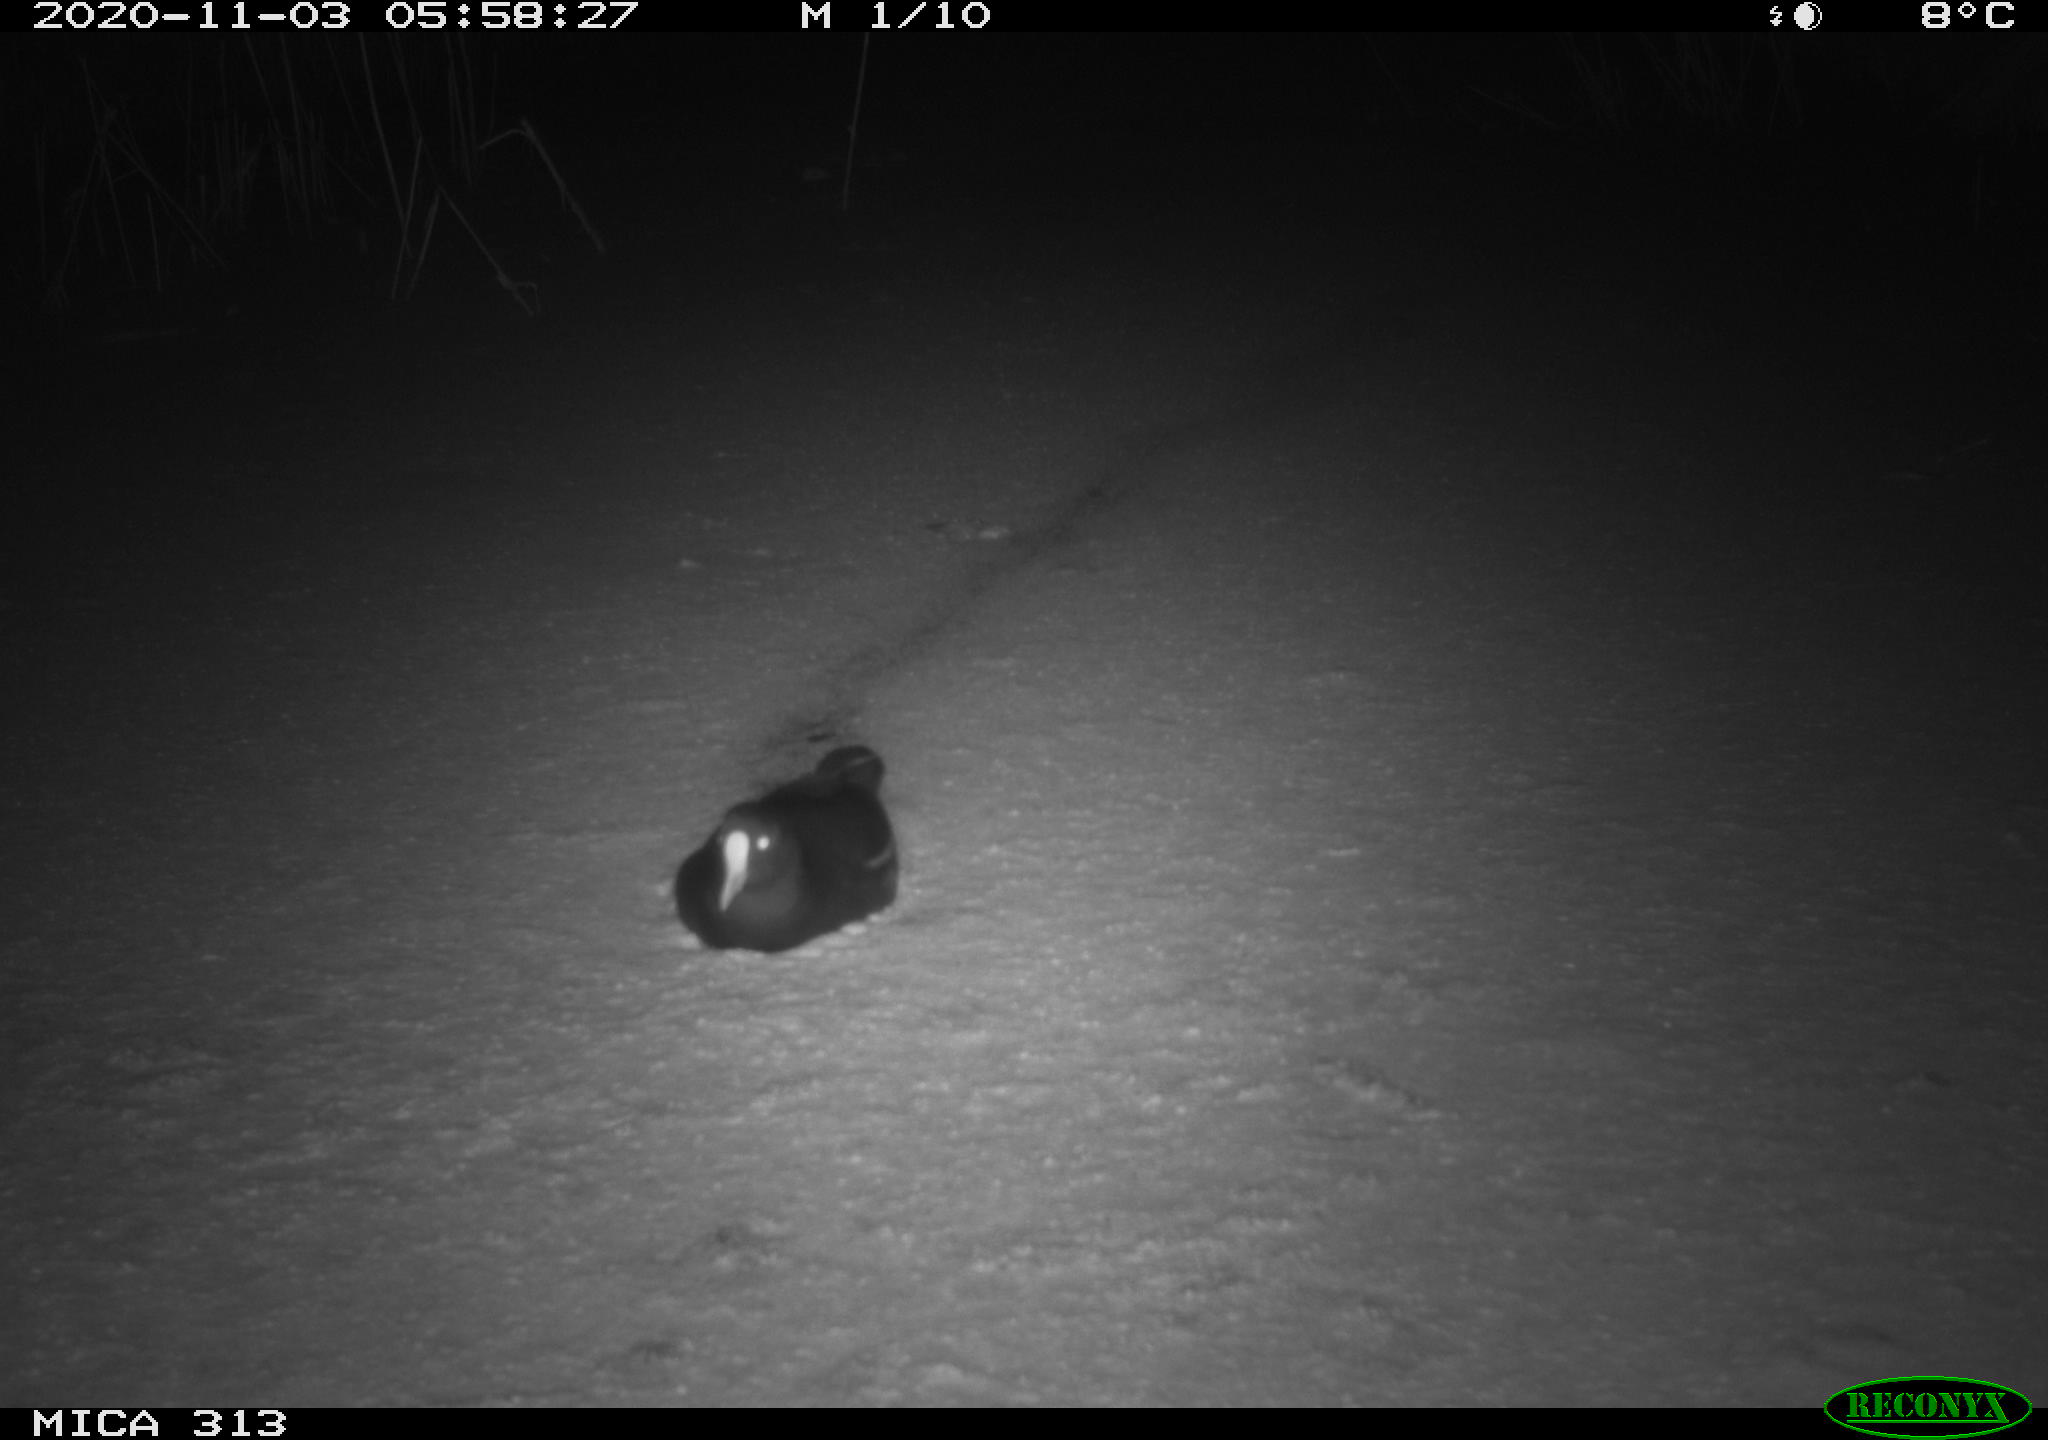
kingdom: Animalia
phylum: Chordata
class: Aves
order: Gruiformes
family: Rallidae
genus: Gallinula
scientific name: Gallinula chloropus
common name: Common moorhen
